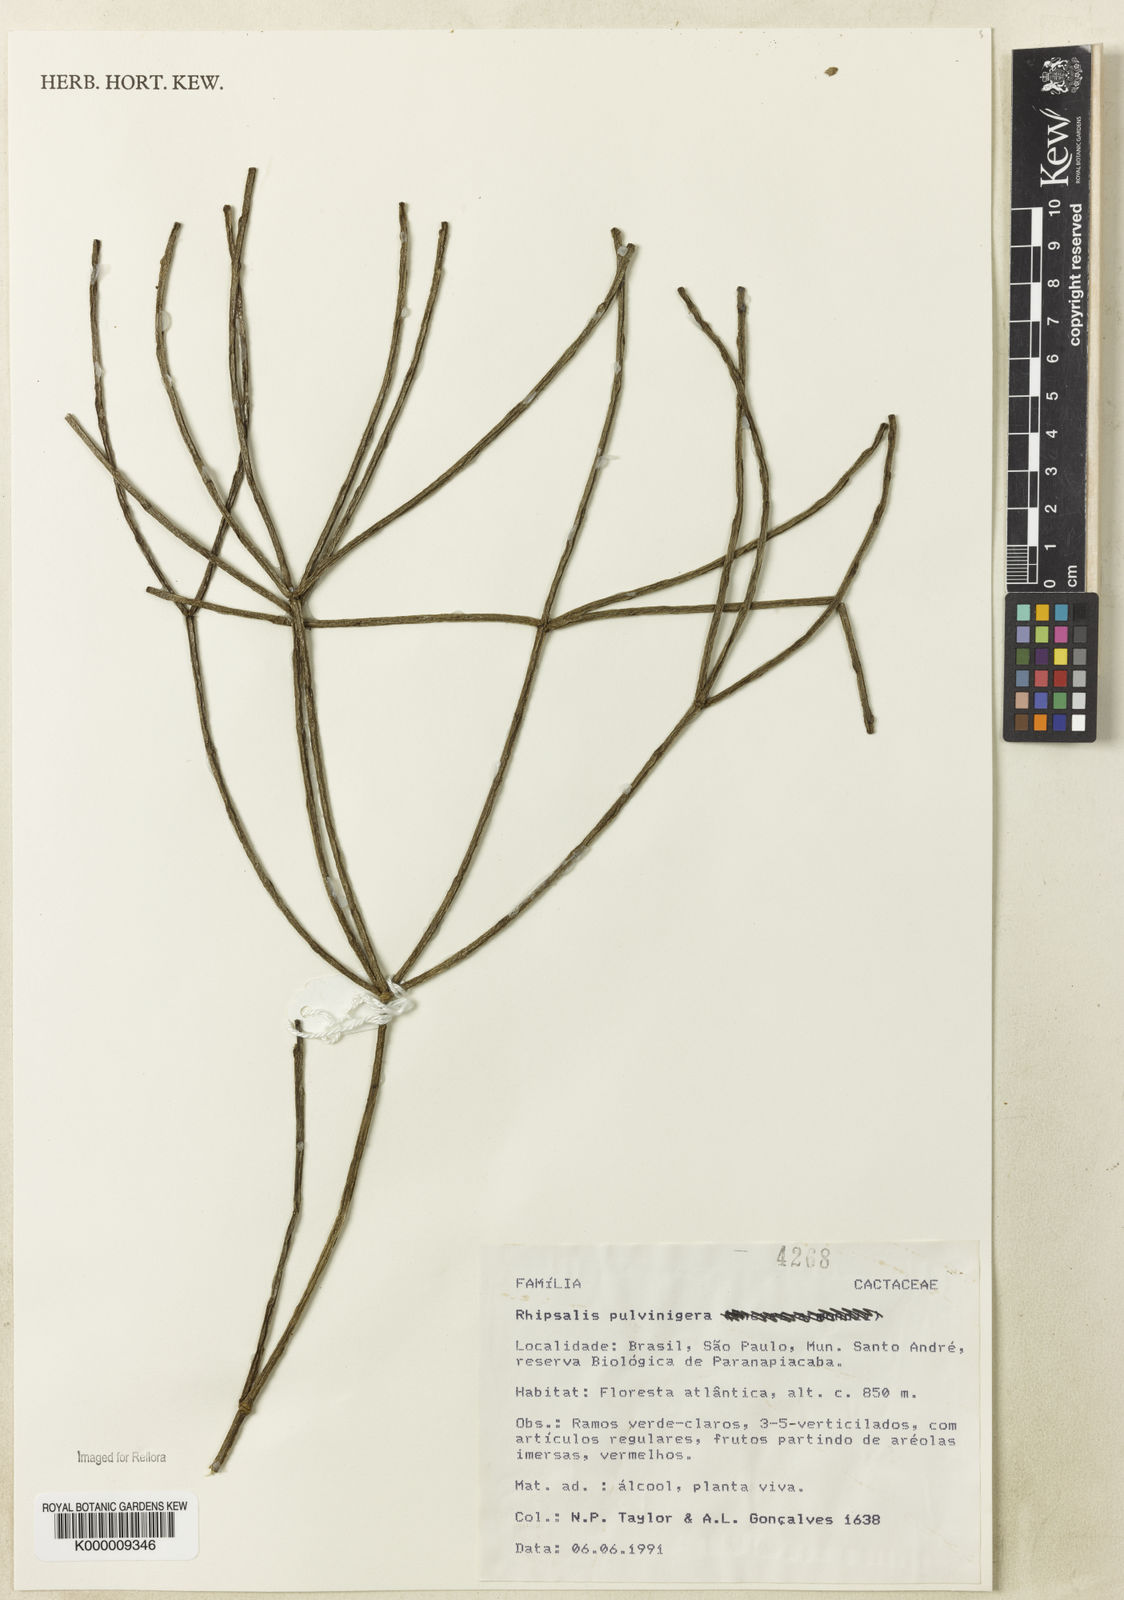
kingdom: Plantae
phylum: Tracheophyta
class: Magnoliopsida
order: Caryophyllales
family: Cactaceae
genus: Rhipsalis
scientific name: Rhipsalis floccosa
